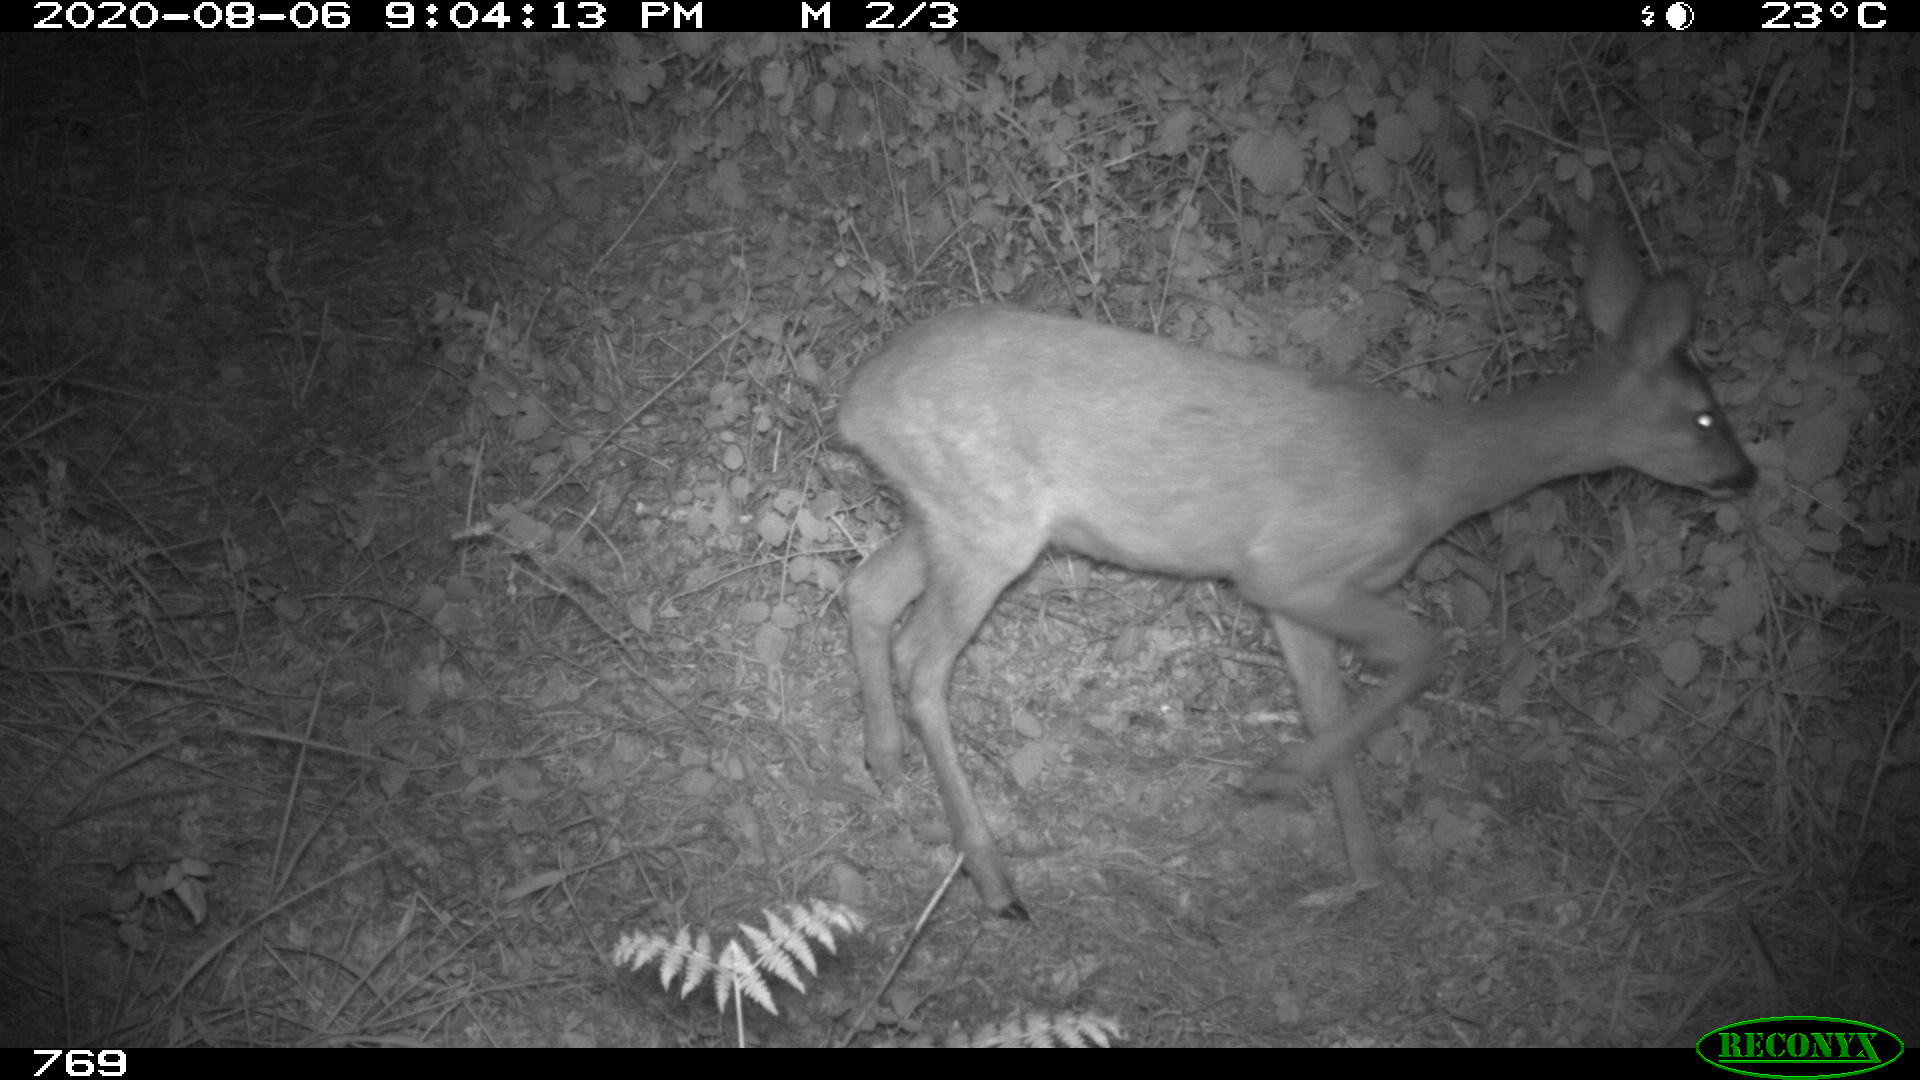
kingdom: Animalia
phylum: Chordata
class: Mammalia
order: Artiodactyla
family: Cervidae
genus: Capreolus
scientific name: Capreolus capreolus
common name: Western roe deer
